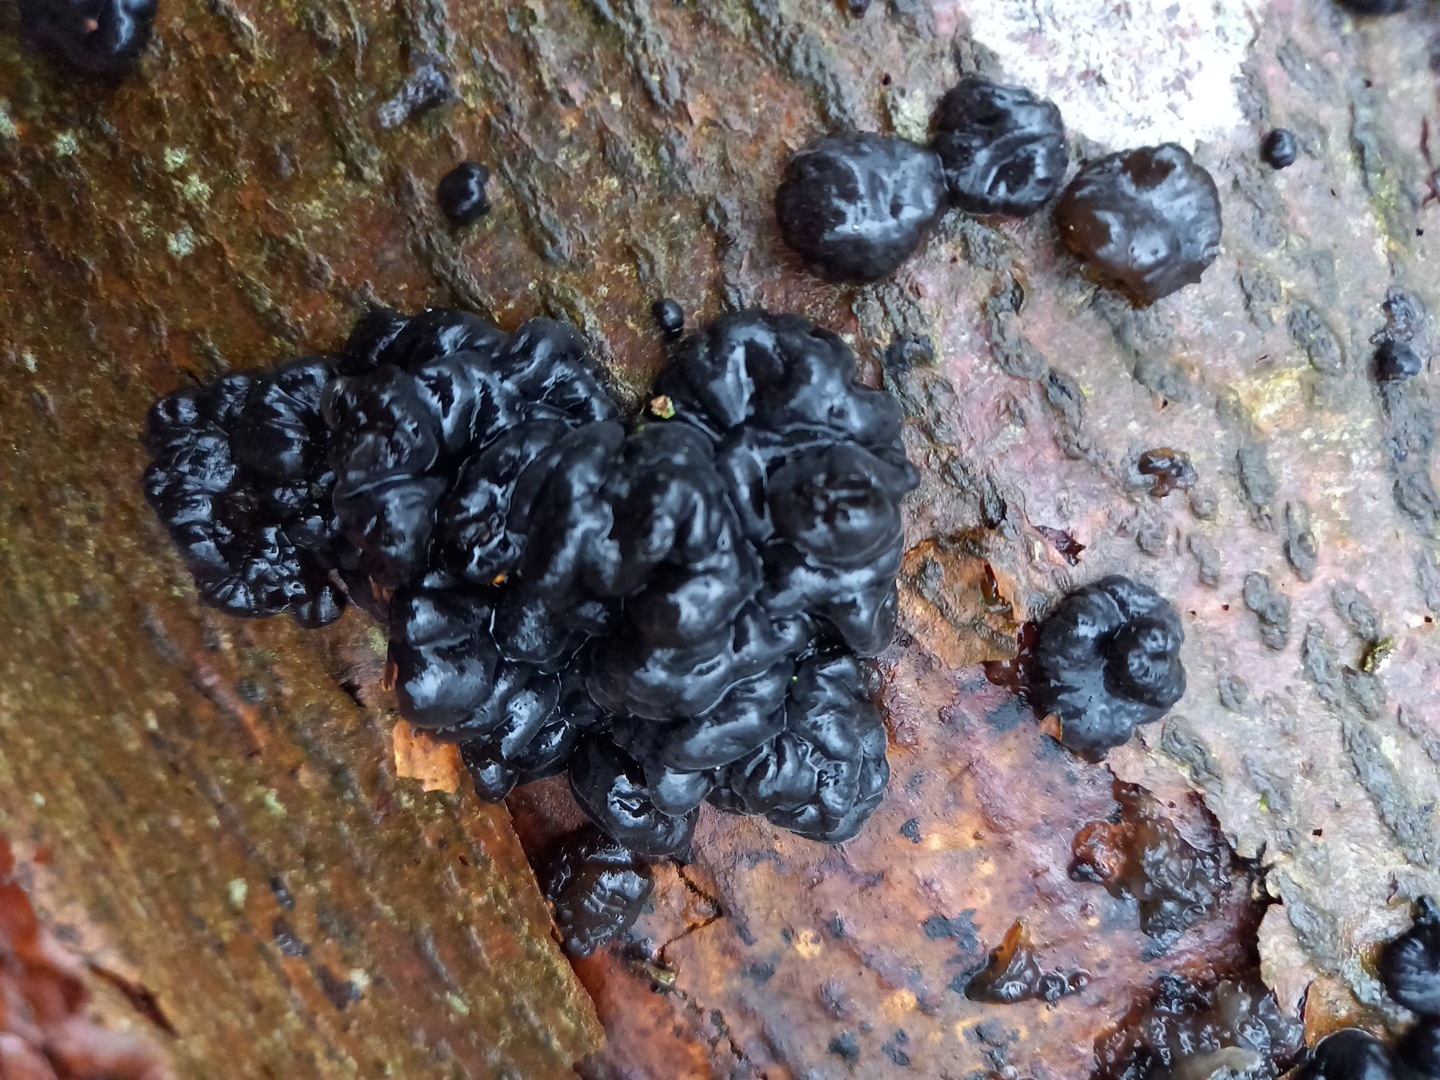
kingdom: Fungi
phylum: Basidiomycota
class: Agaricomycetes
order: Auriculariales
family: Auriculariaceae
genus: Exidia
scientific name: Exidia nigricans
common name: almindelig bævretop
